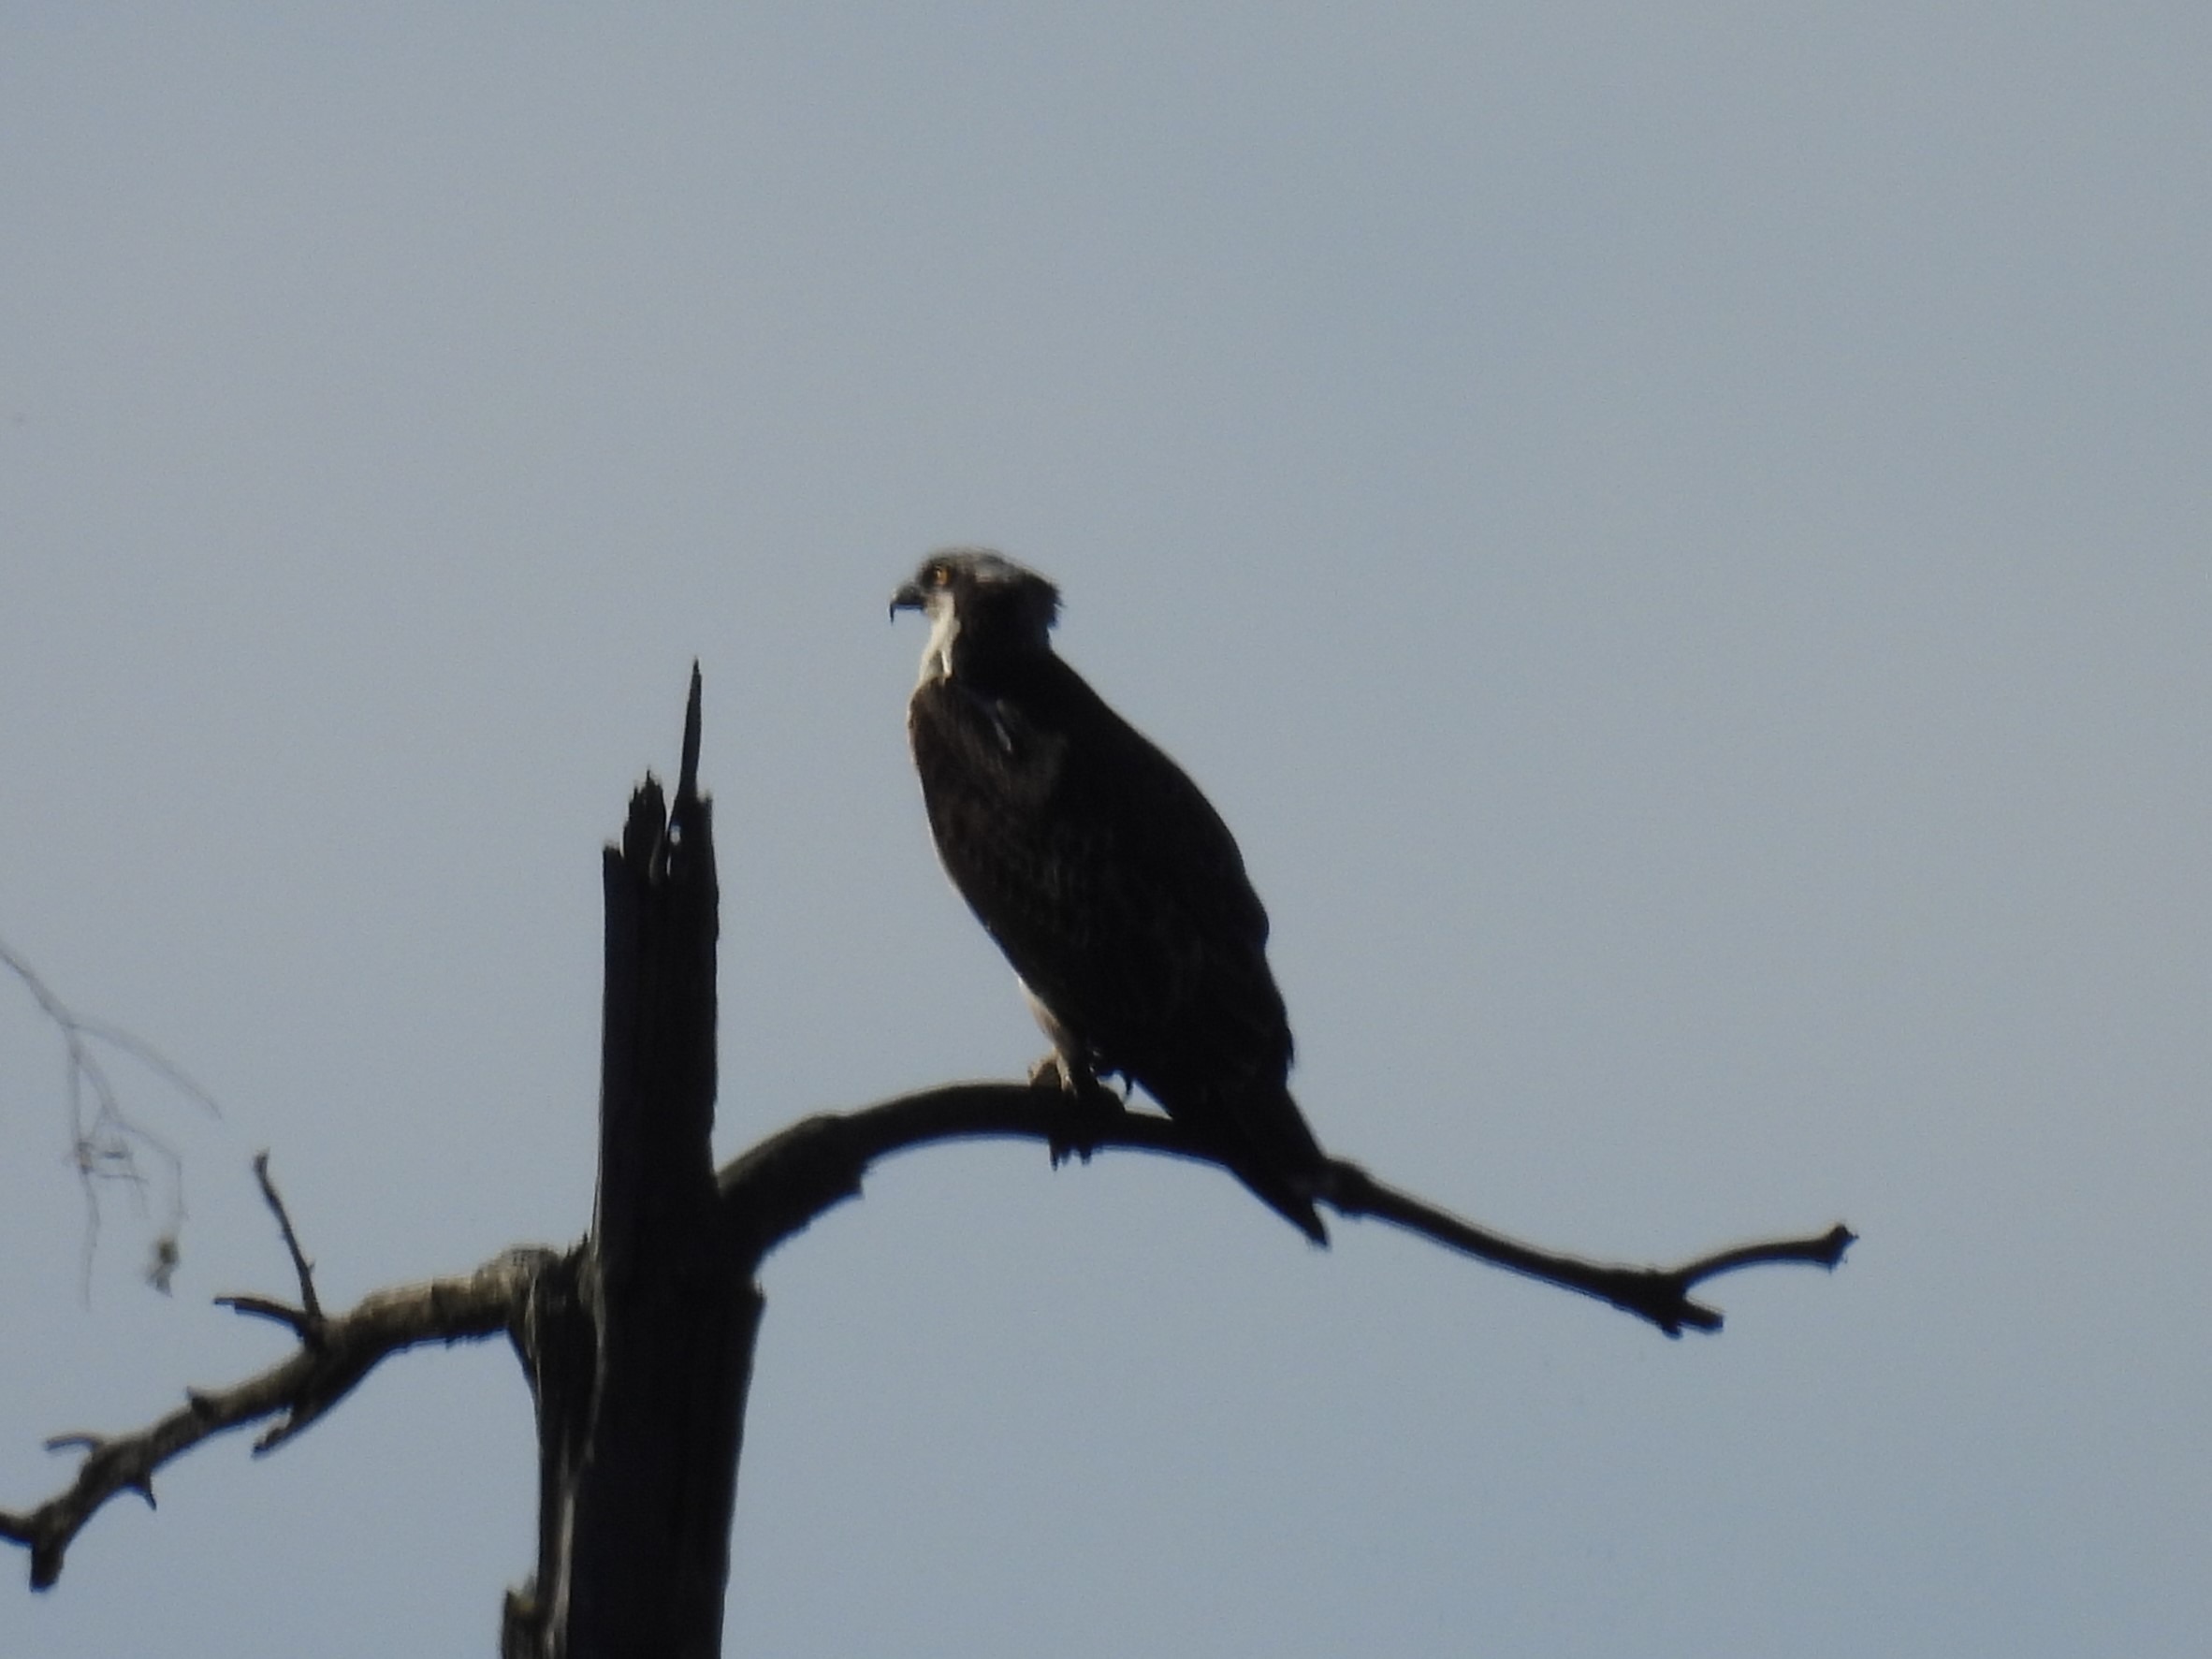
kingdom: Animalia
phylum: Chordata
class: Aves
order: Accipitriformes
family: Pandionidae
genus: Pandion
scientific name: Pandion haliaetus
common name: Fiskeørn
